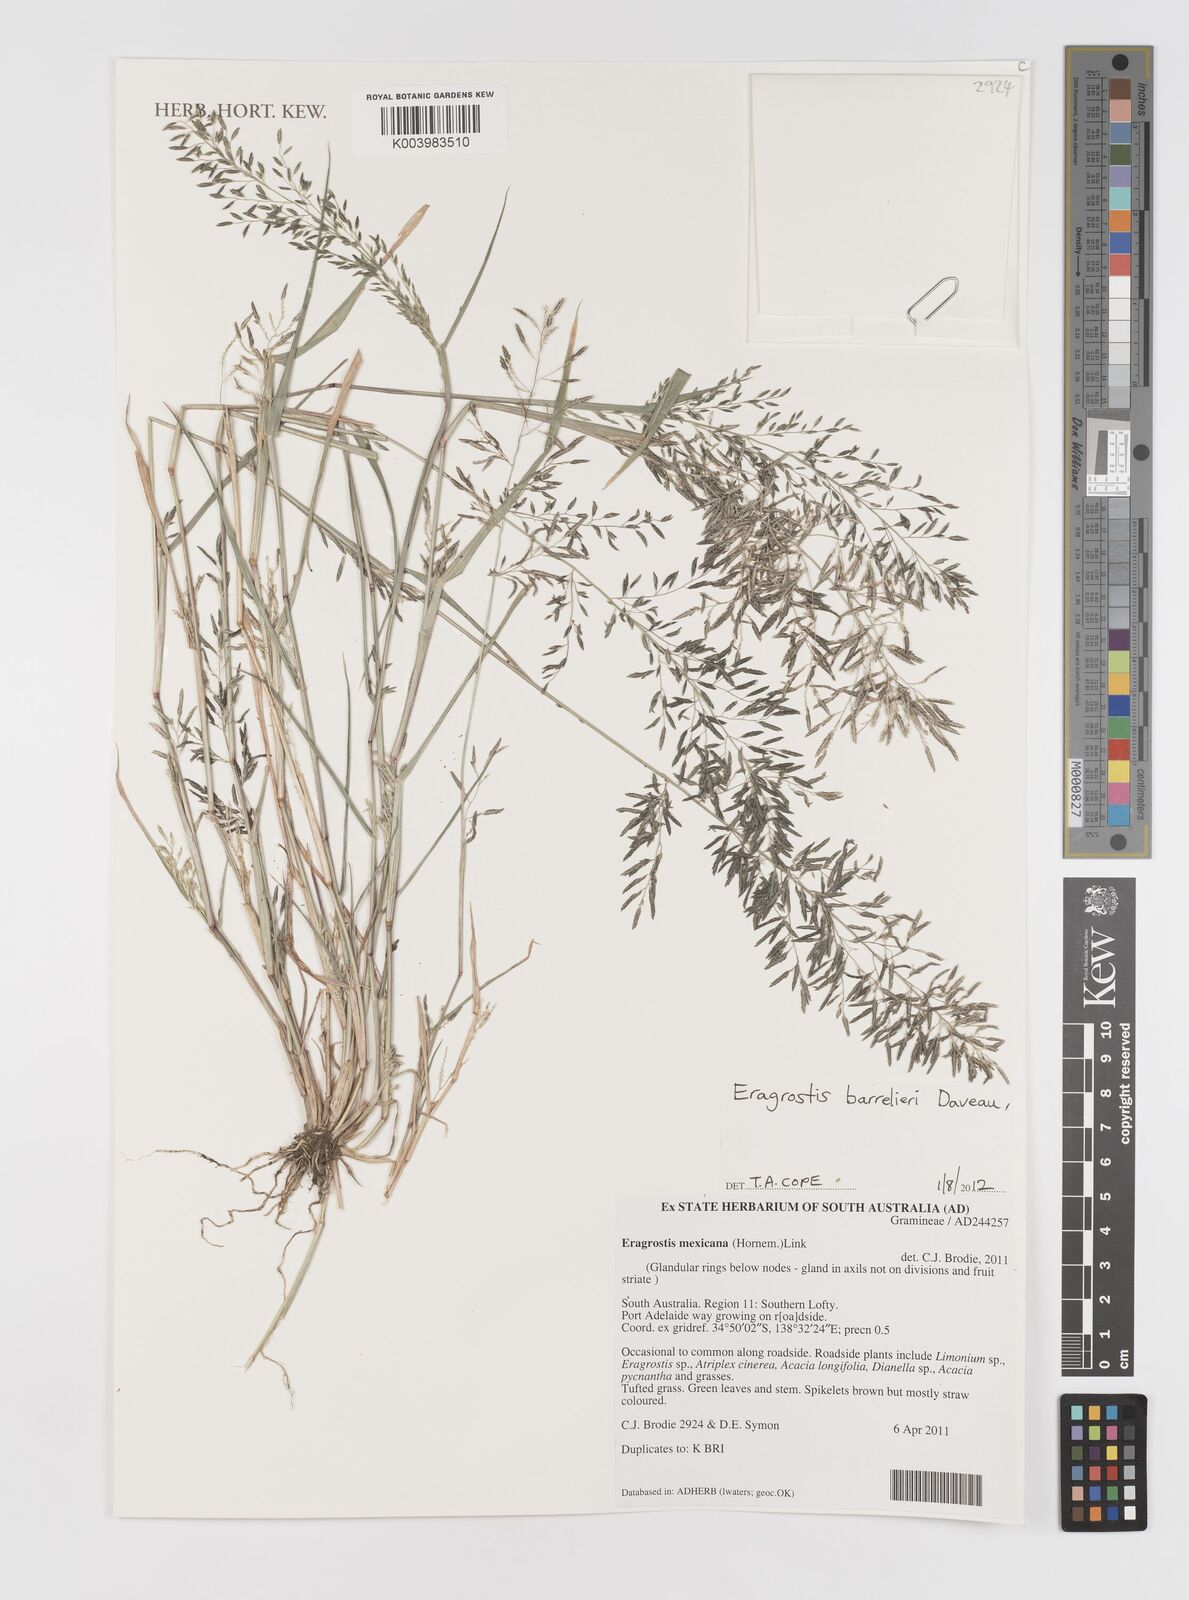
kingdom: Plantae
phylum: Tracheophyta
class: Liliopsida
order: Poales
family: Poaceae
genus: Eragrostis
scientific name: Eragrostis barrelieri
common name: Mediterranean lovegrass
